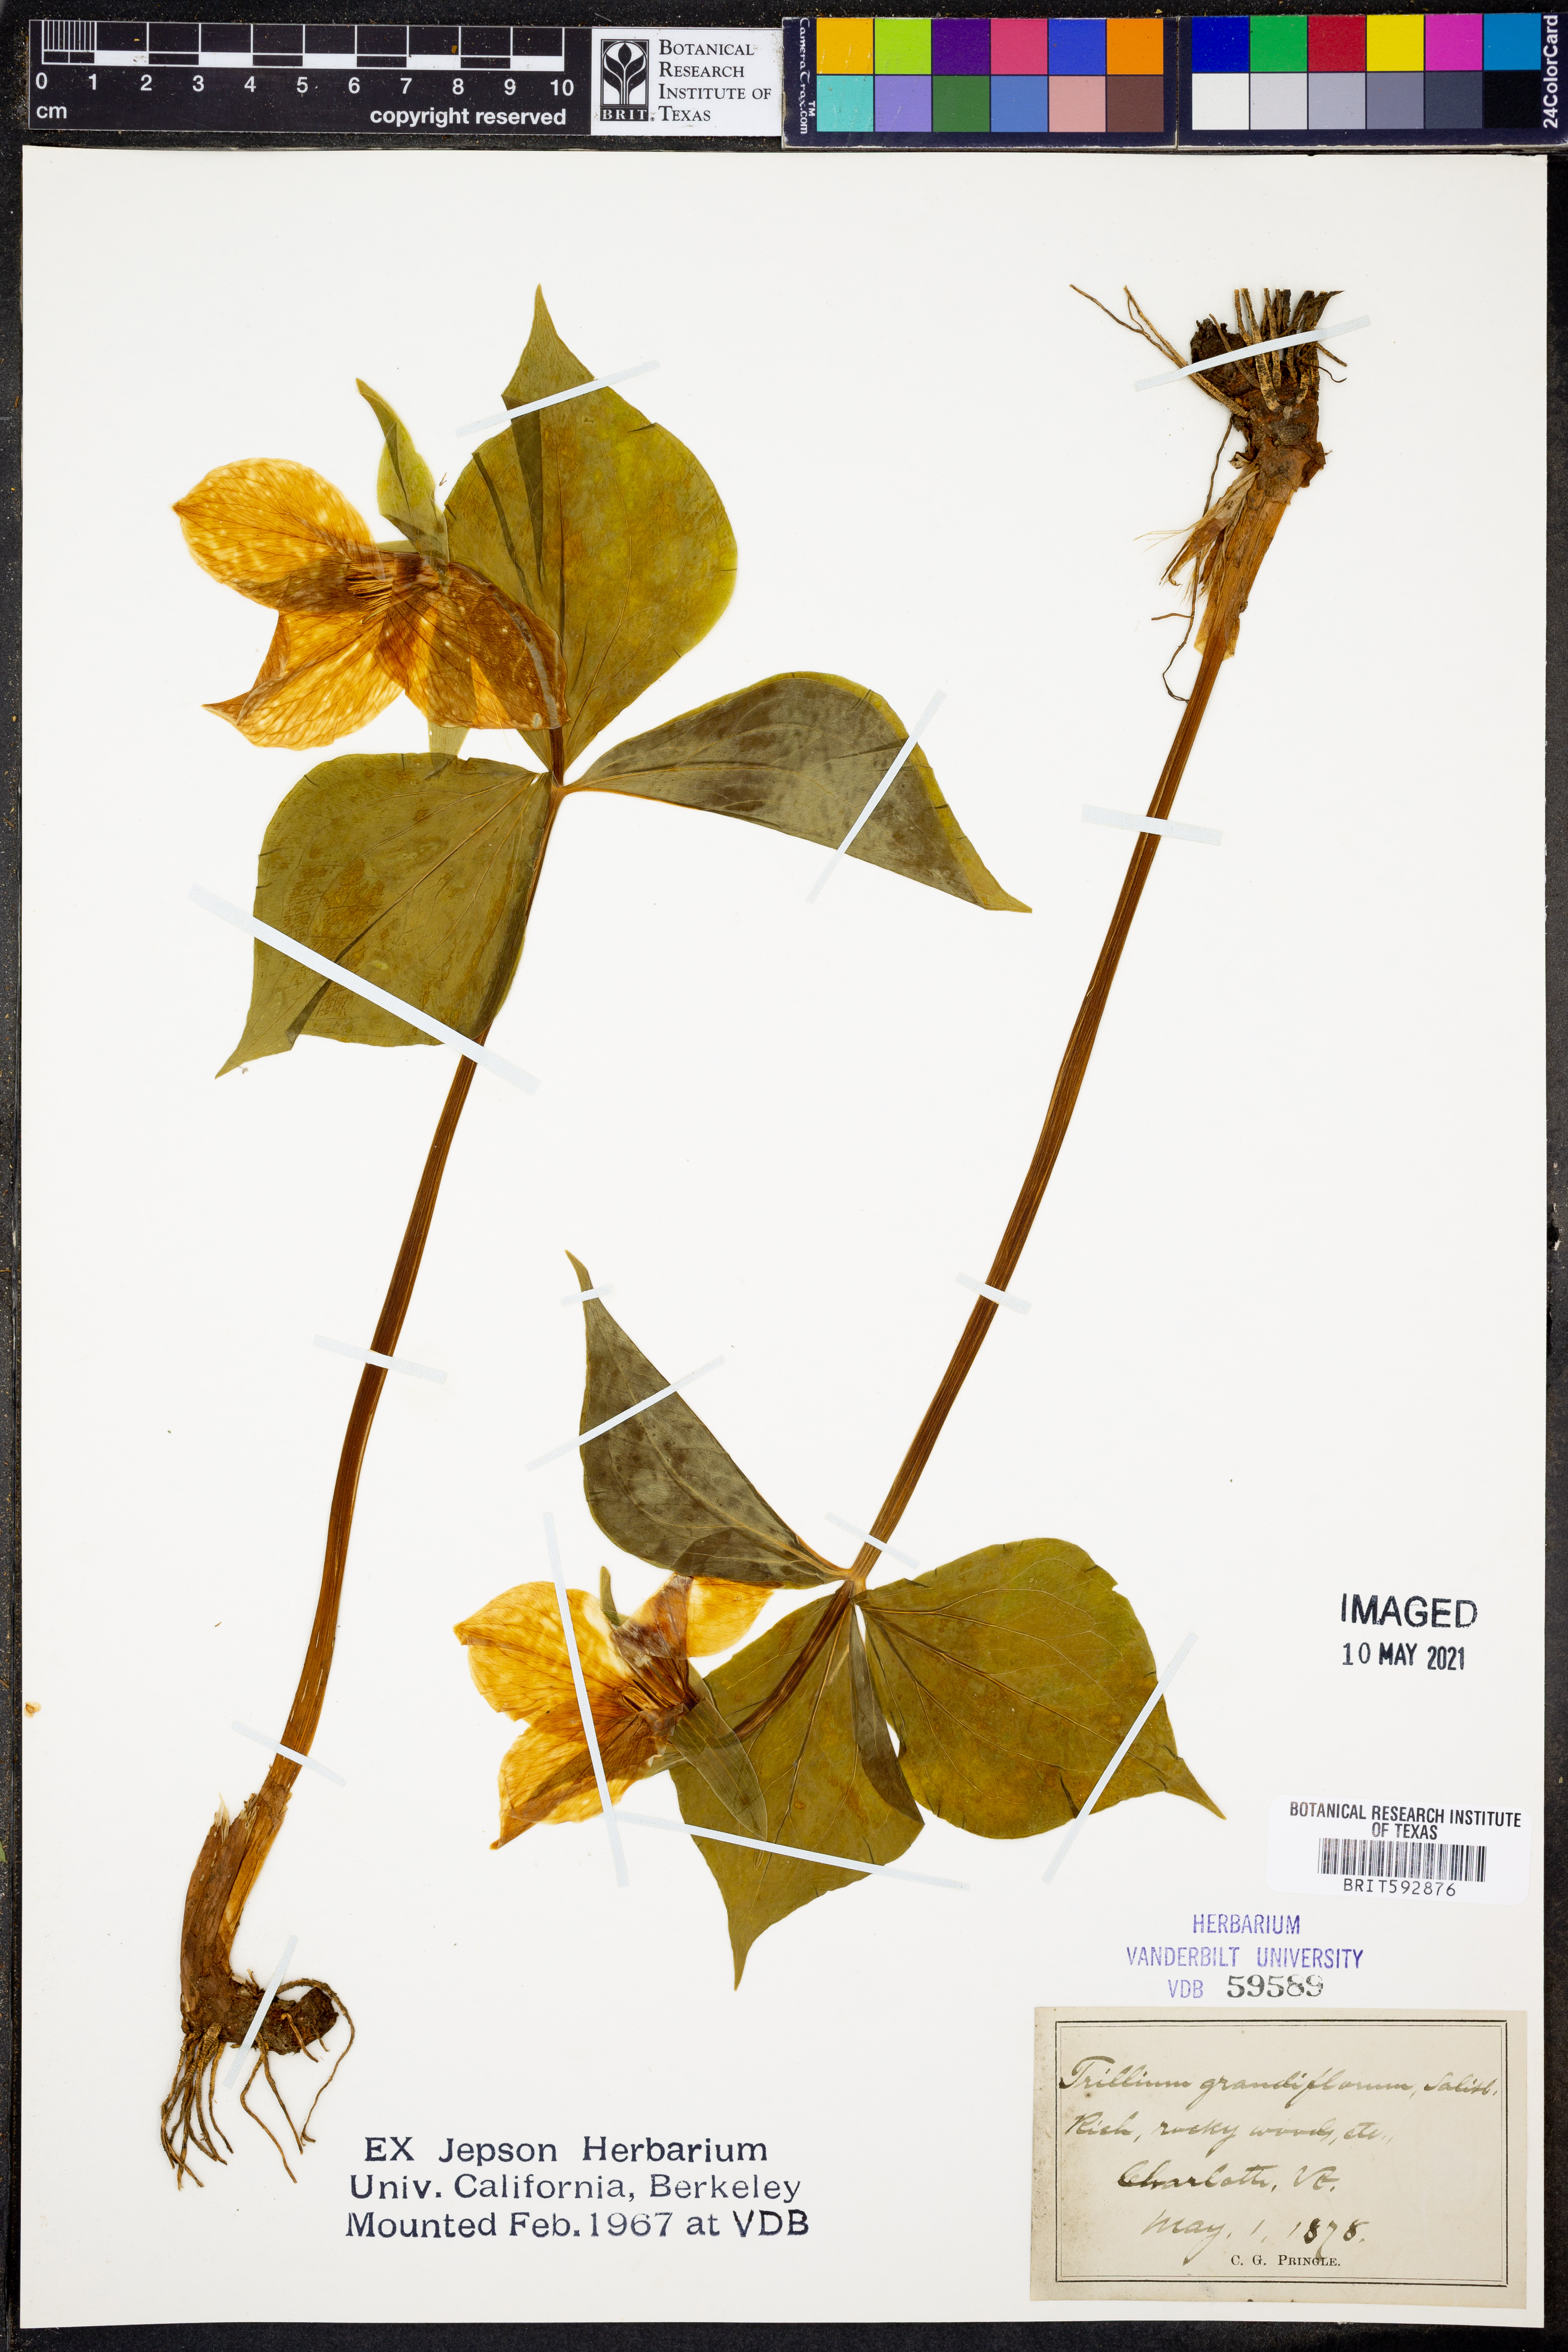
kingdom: Plantae
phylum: Tracheophyta
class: Liliopsida
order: Liliales
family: Melanthiaceae
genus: Trillium
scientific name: Trillium grandiflorum
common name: Great white trillium
